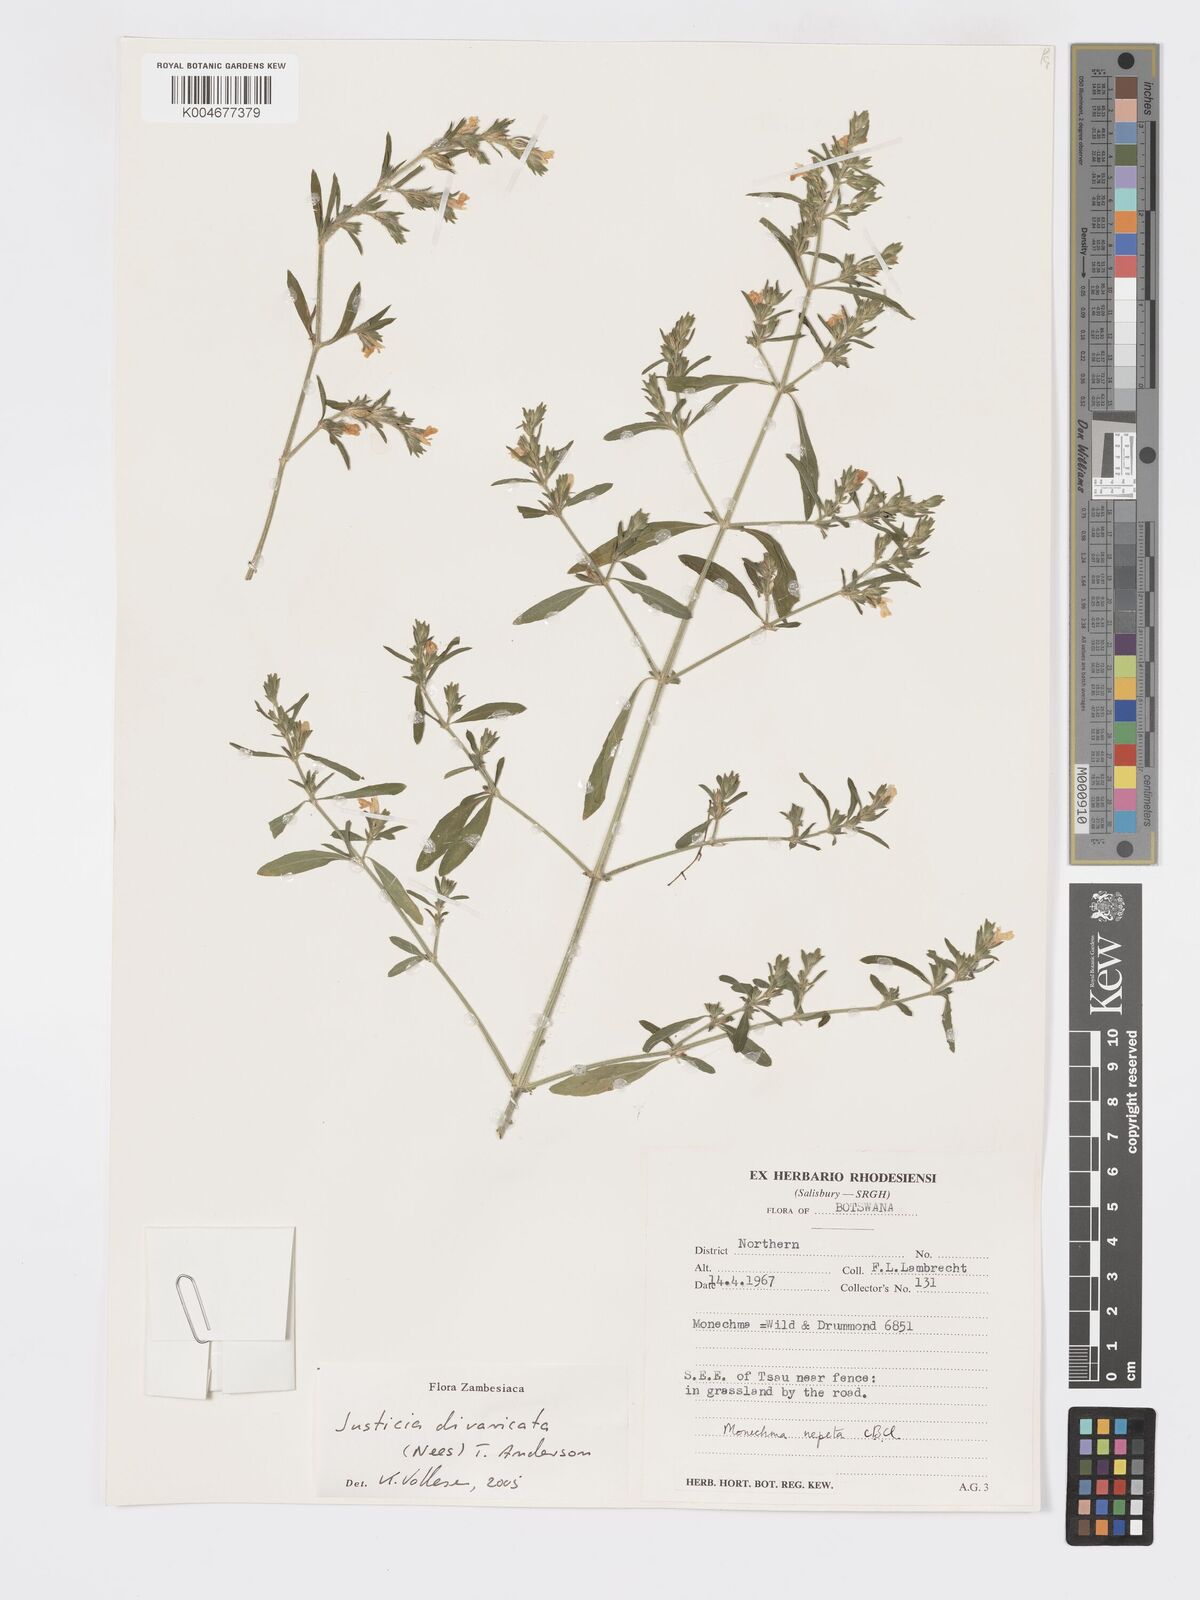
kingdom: Plantae
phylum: Tracheophyta
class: Magnoliopsida
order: Lamiales
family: Acanthaceae
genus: Pogonospermum
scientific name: Pogonospermum
